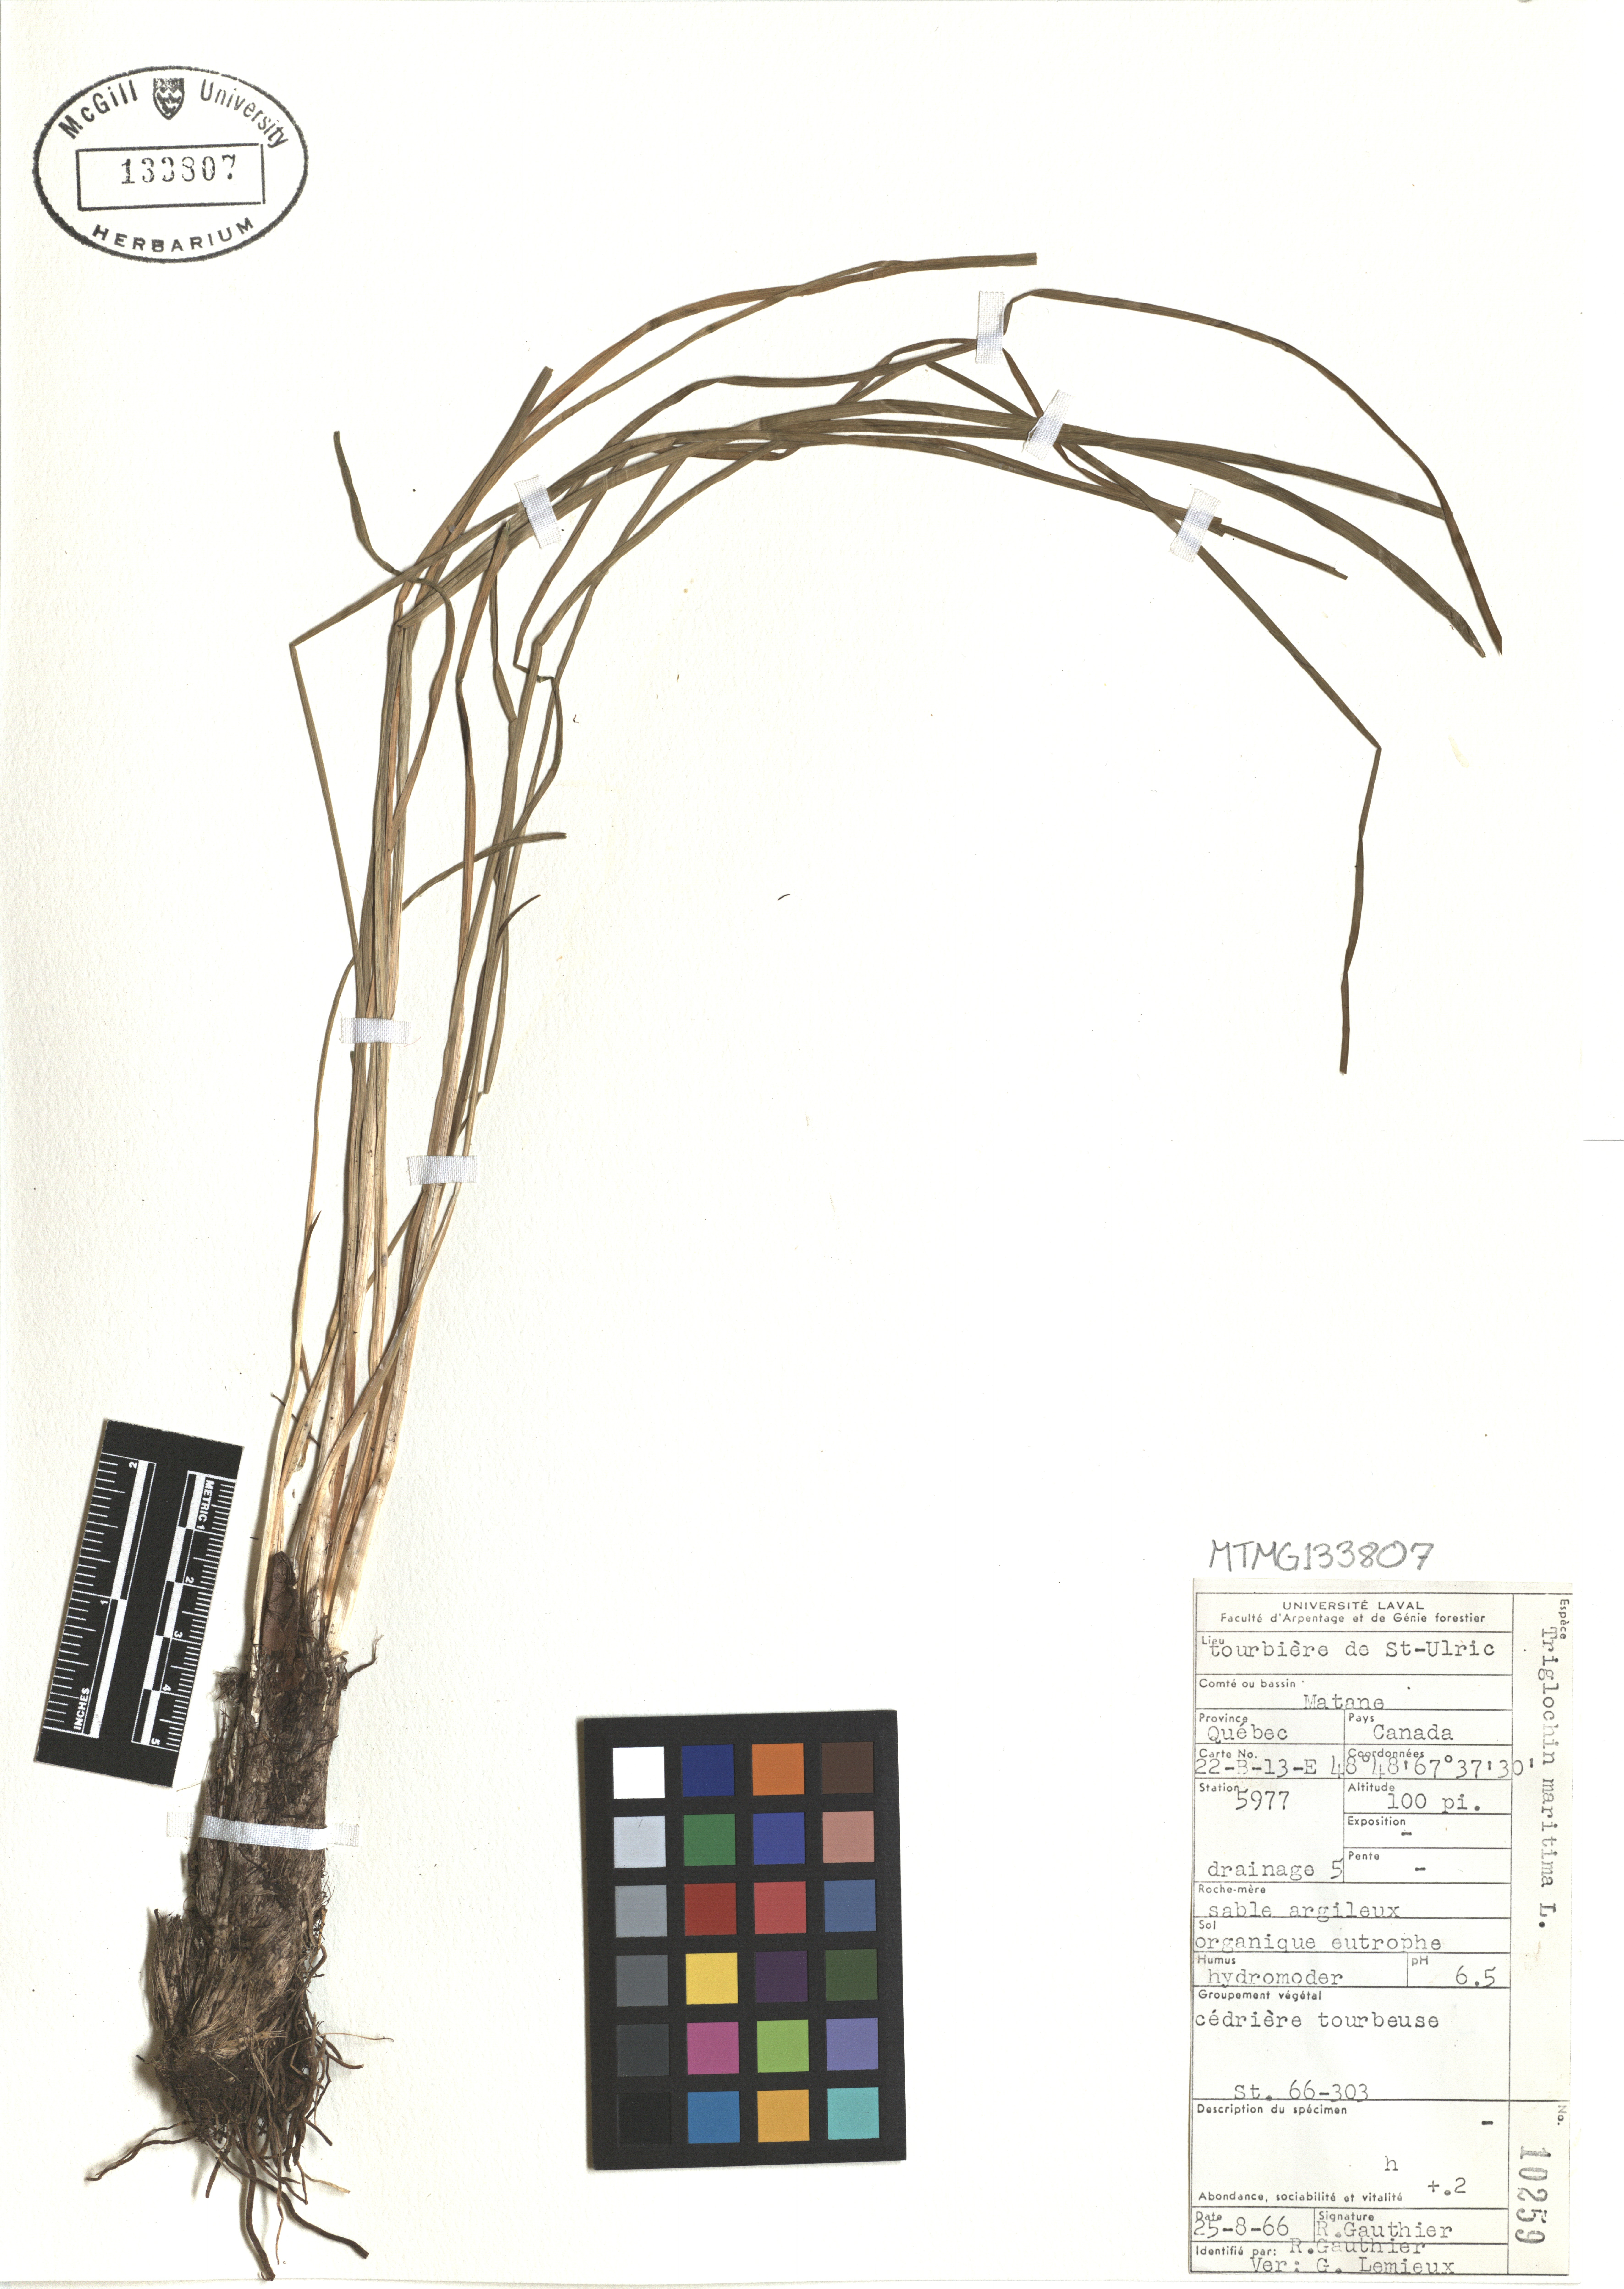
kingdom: Plantae
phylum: Tracheophyta
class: Liliopsida
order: Alismatales
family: Juncaginaceae
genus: Triglochin
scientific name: Triglochin maritima
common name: Sea arrowgrass
